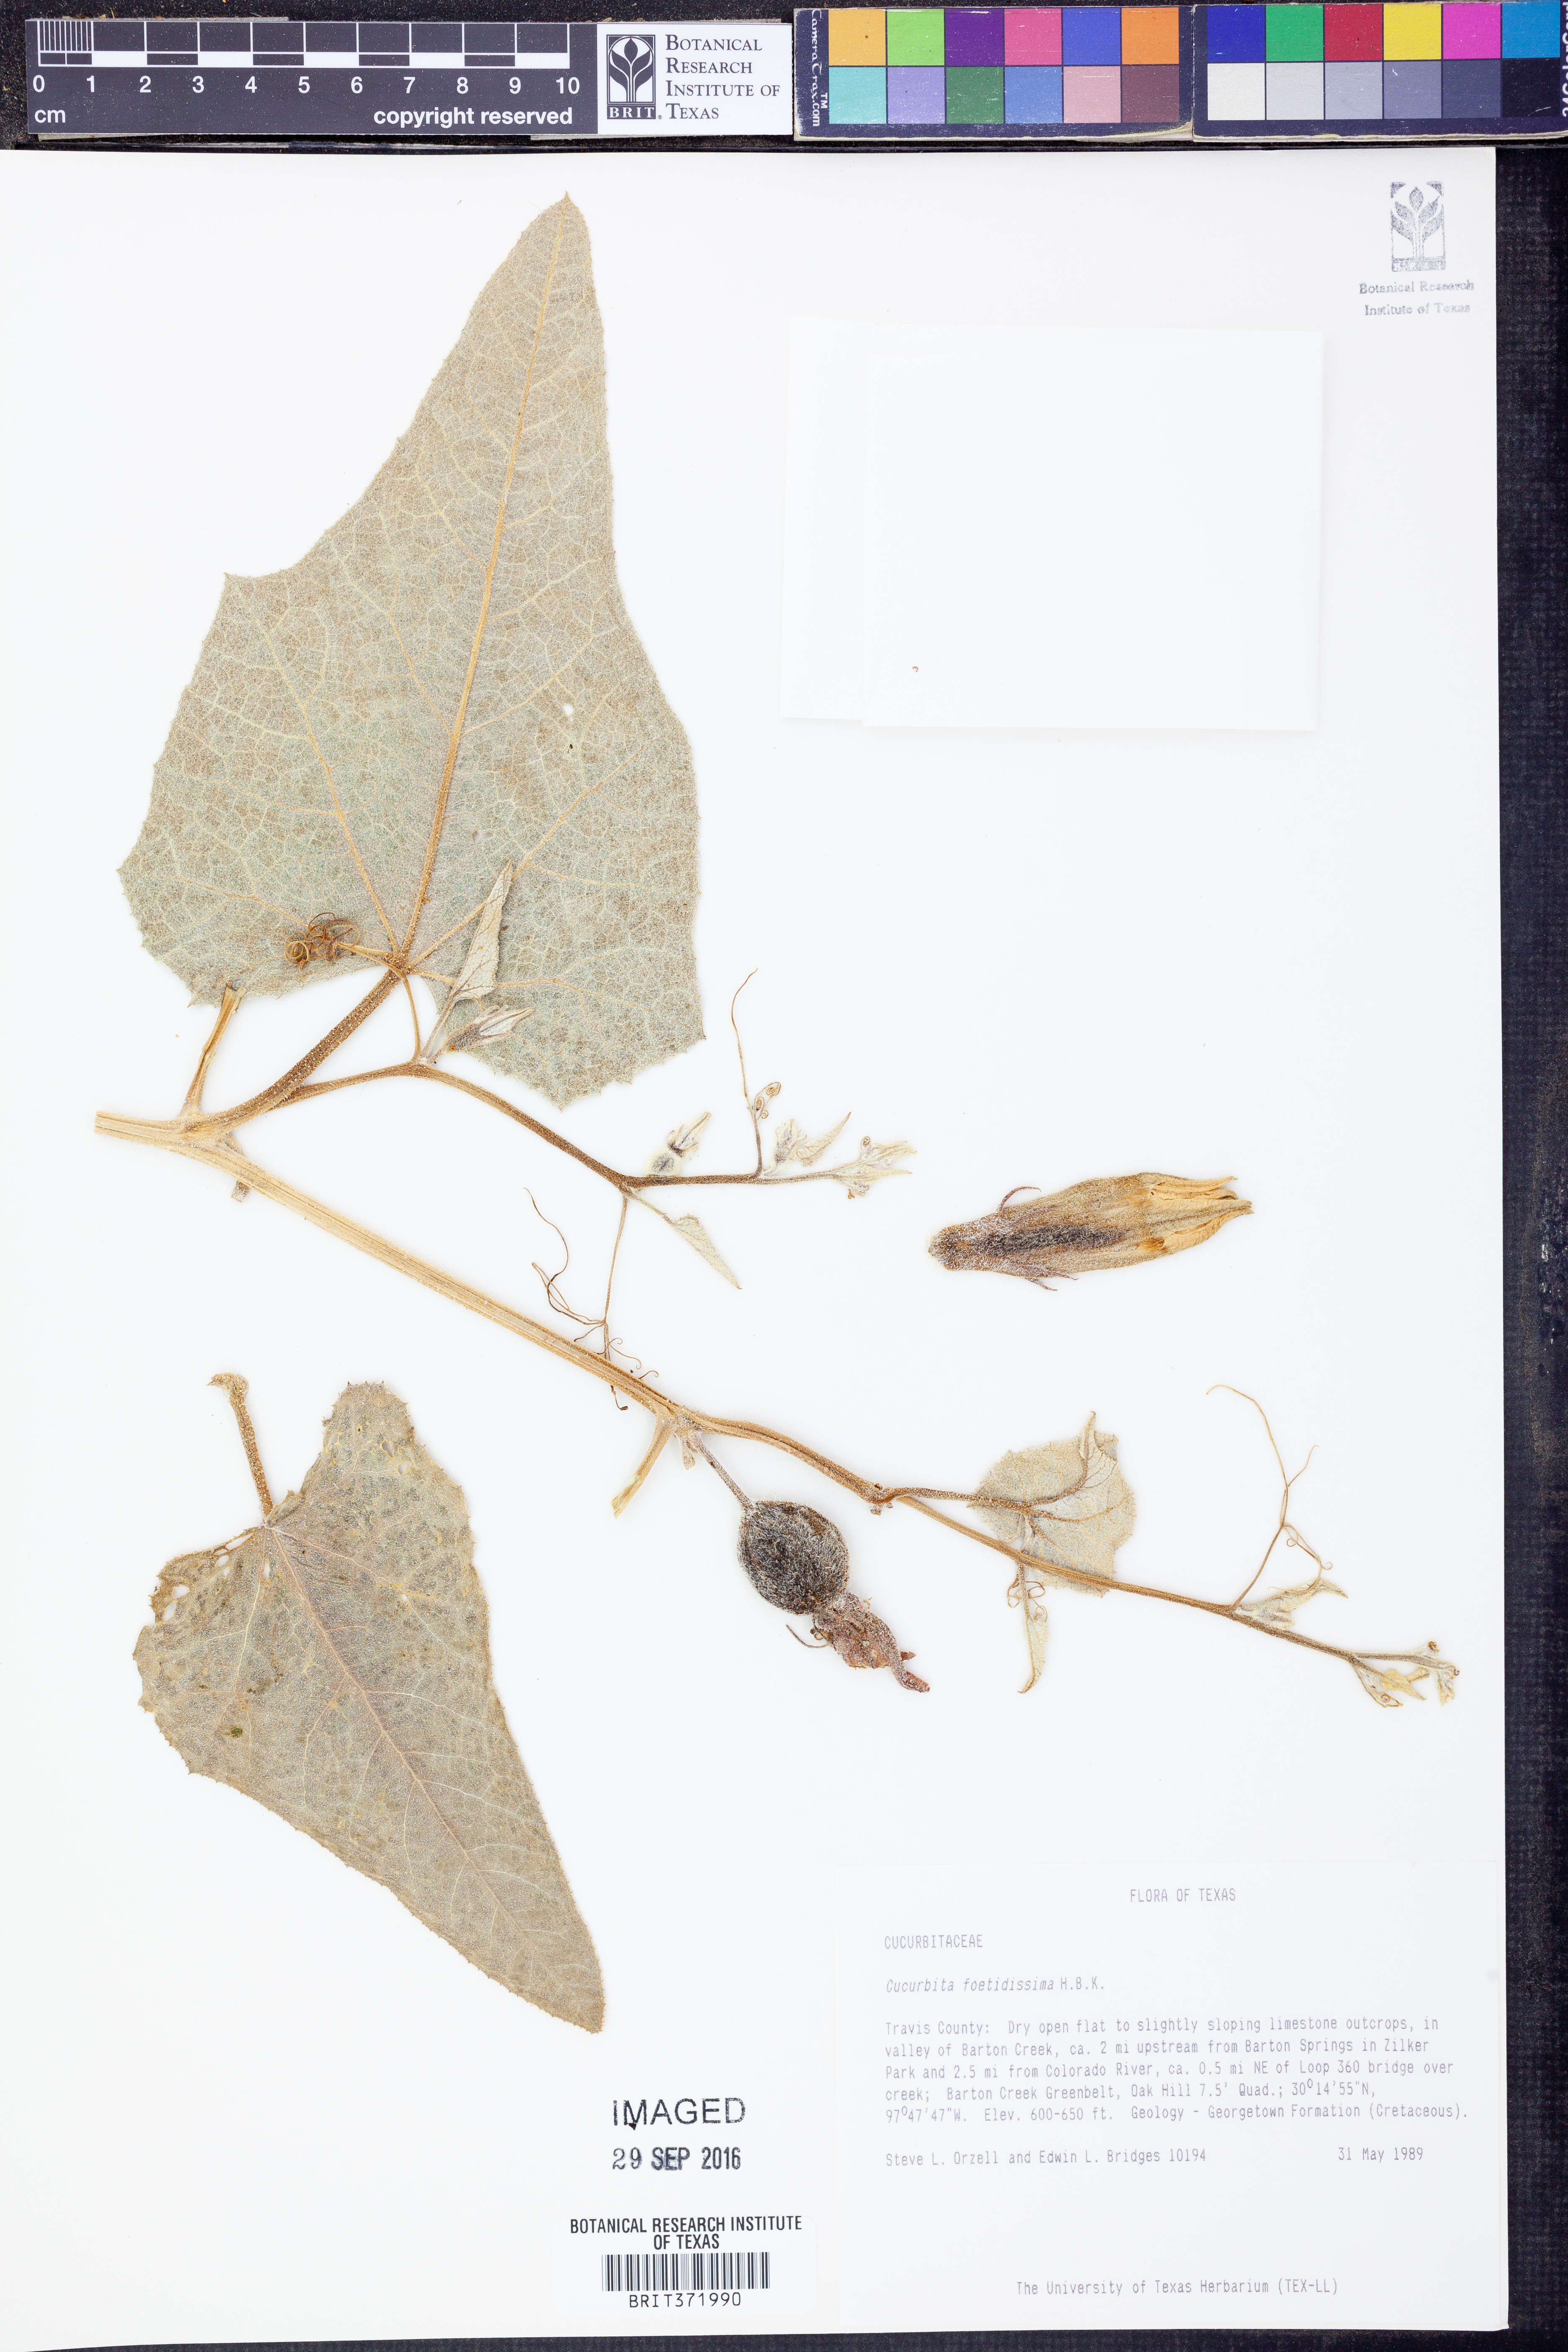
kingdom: Plantae
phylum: Tracheophyta
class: Magnoliopsida
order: Cucurbitales
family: Cucurbitaceae
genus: Cucurbita
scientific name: Cucurbita foetidissima
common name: Buffalo gourd
